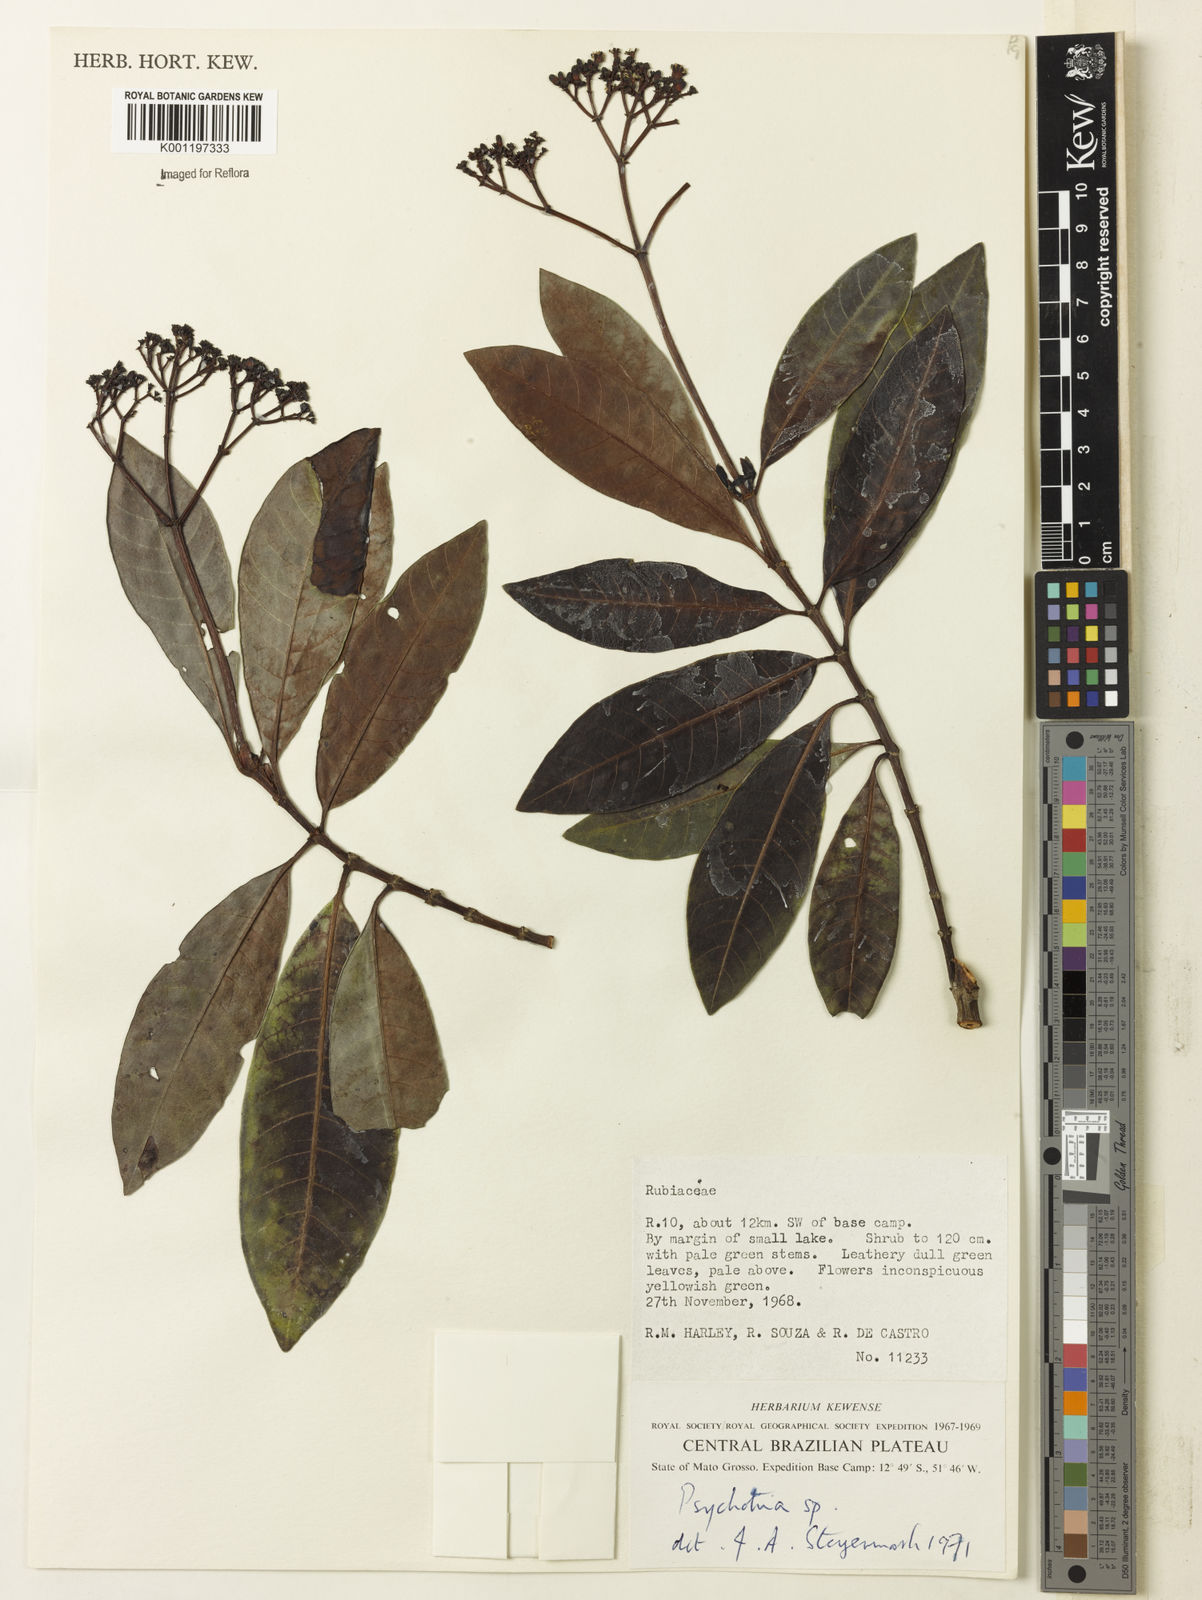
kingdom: Plantae
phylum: Tracheophyta
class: Magnoliopsida
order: Gentianales
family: Rubiaceae
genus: Psychotria
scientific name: Psychotria anceps
